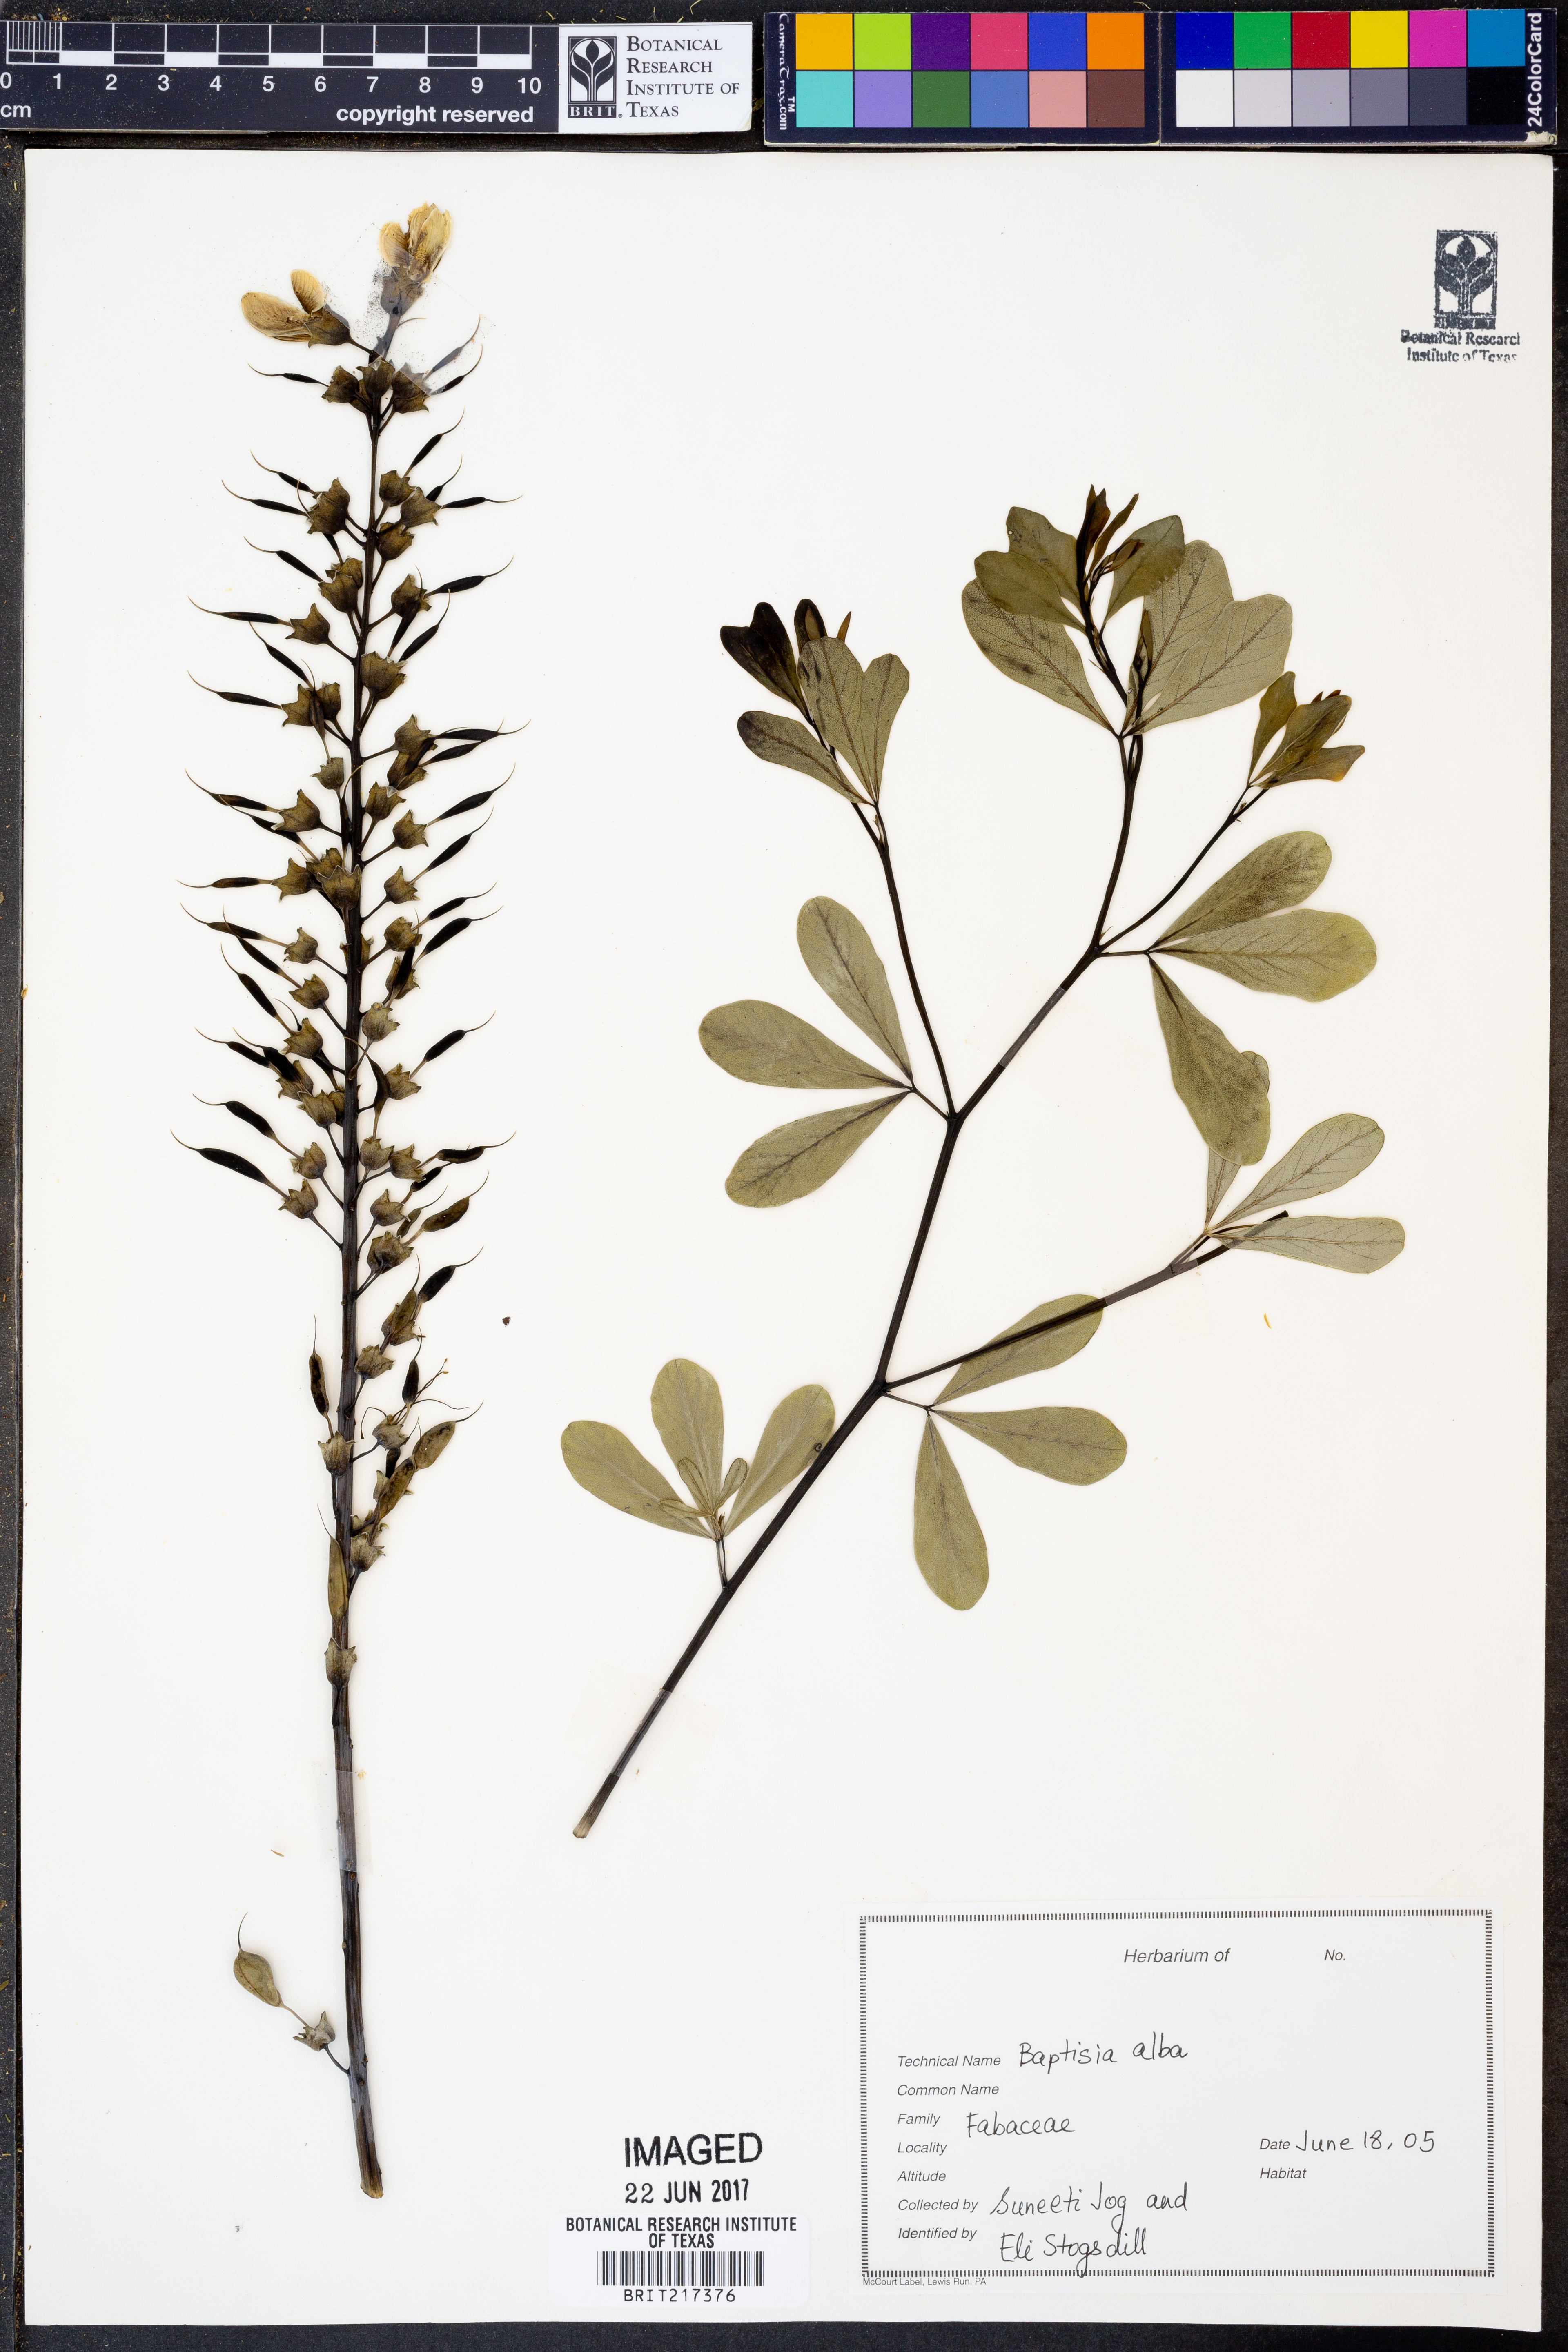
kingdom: Plantae
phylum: Tracheophyta
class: Magnoliopsida
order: Fabales
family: Fabaceae
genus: Baptisia
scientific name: Baptisia alba
